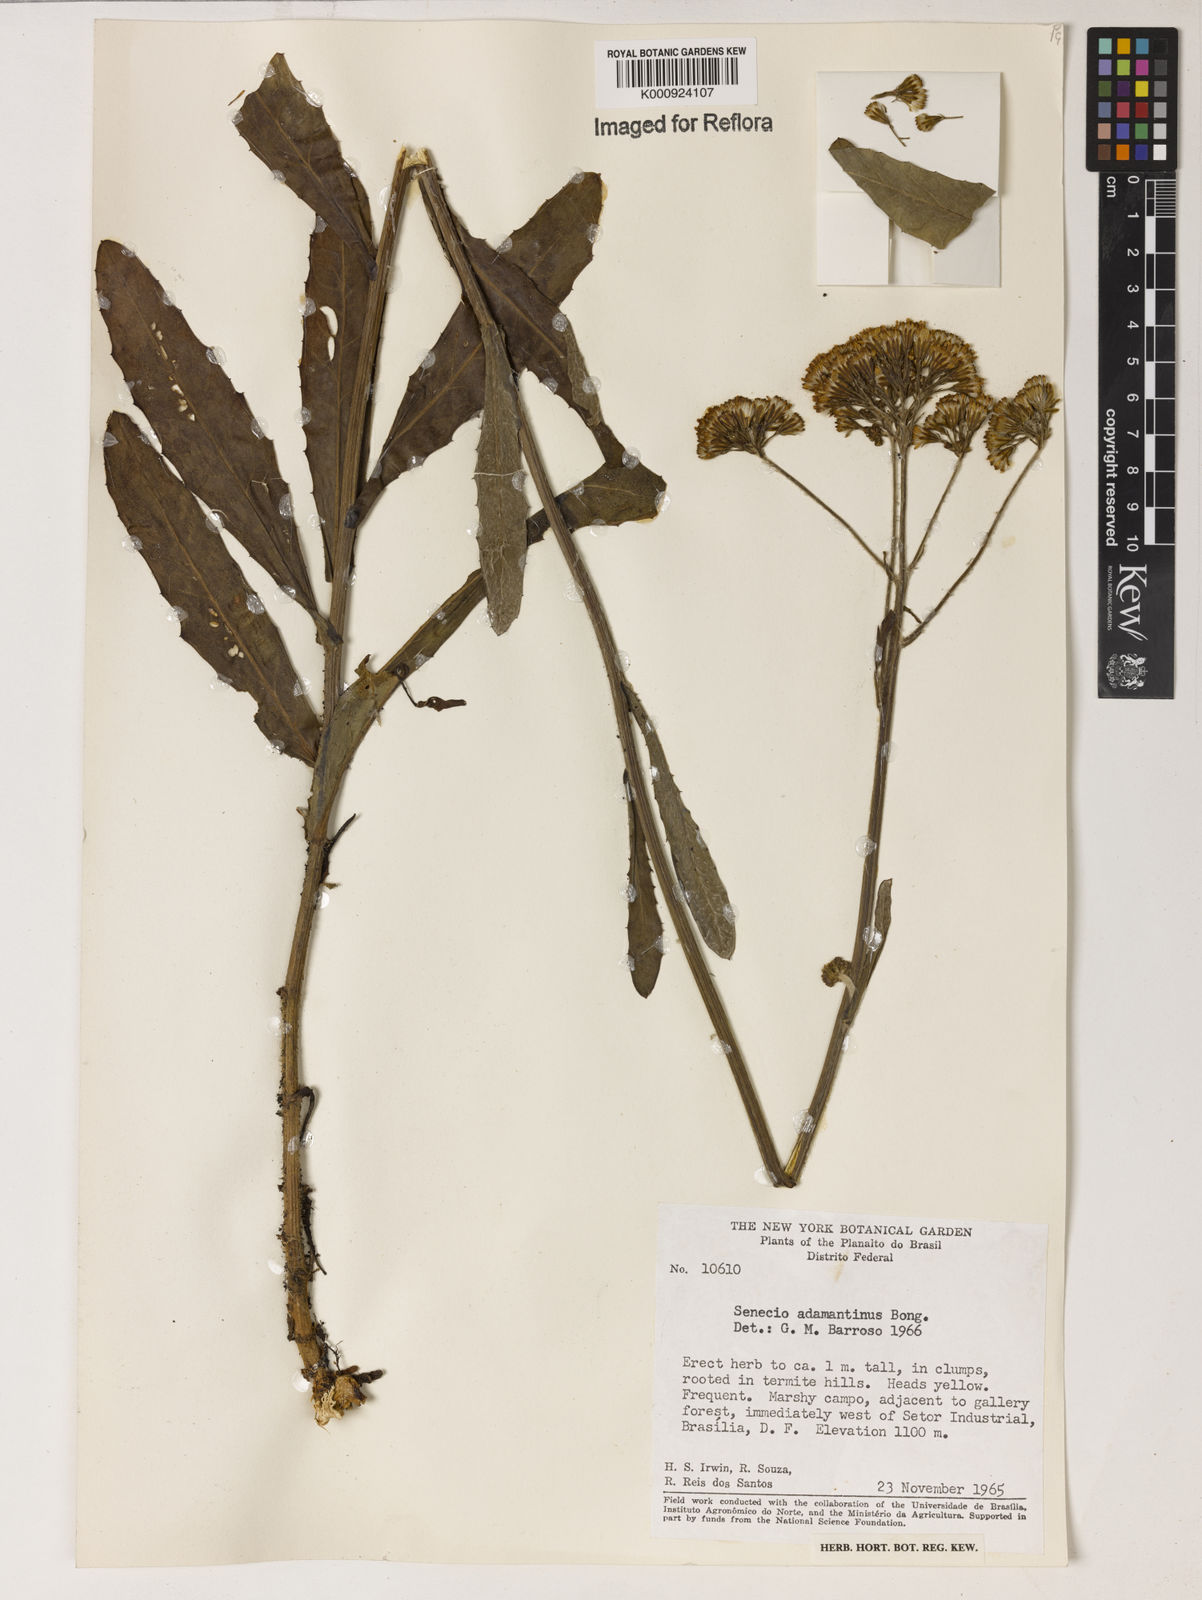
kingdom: Plantae
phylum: Tracheophyta
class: Magnoliopsida
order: Asterales
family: Asteraceae
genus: Senecio
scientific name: Senecio
